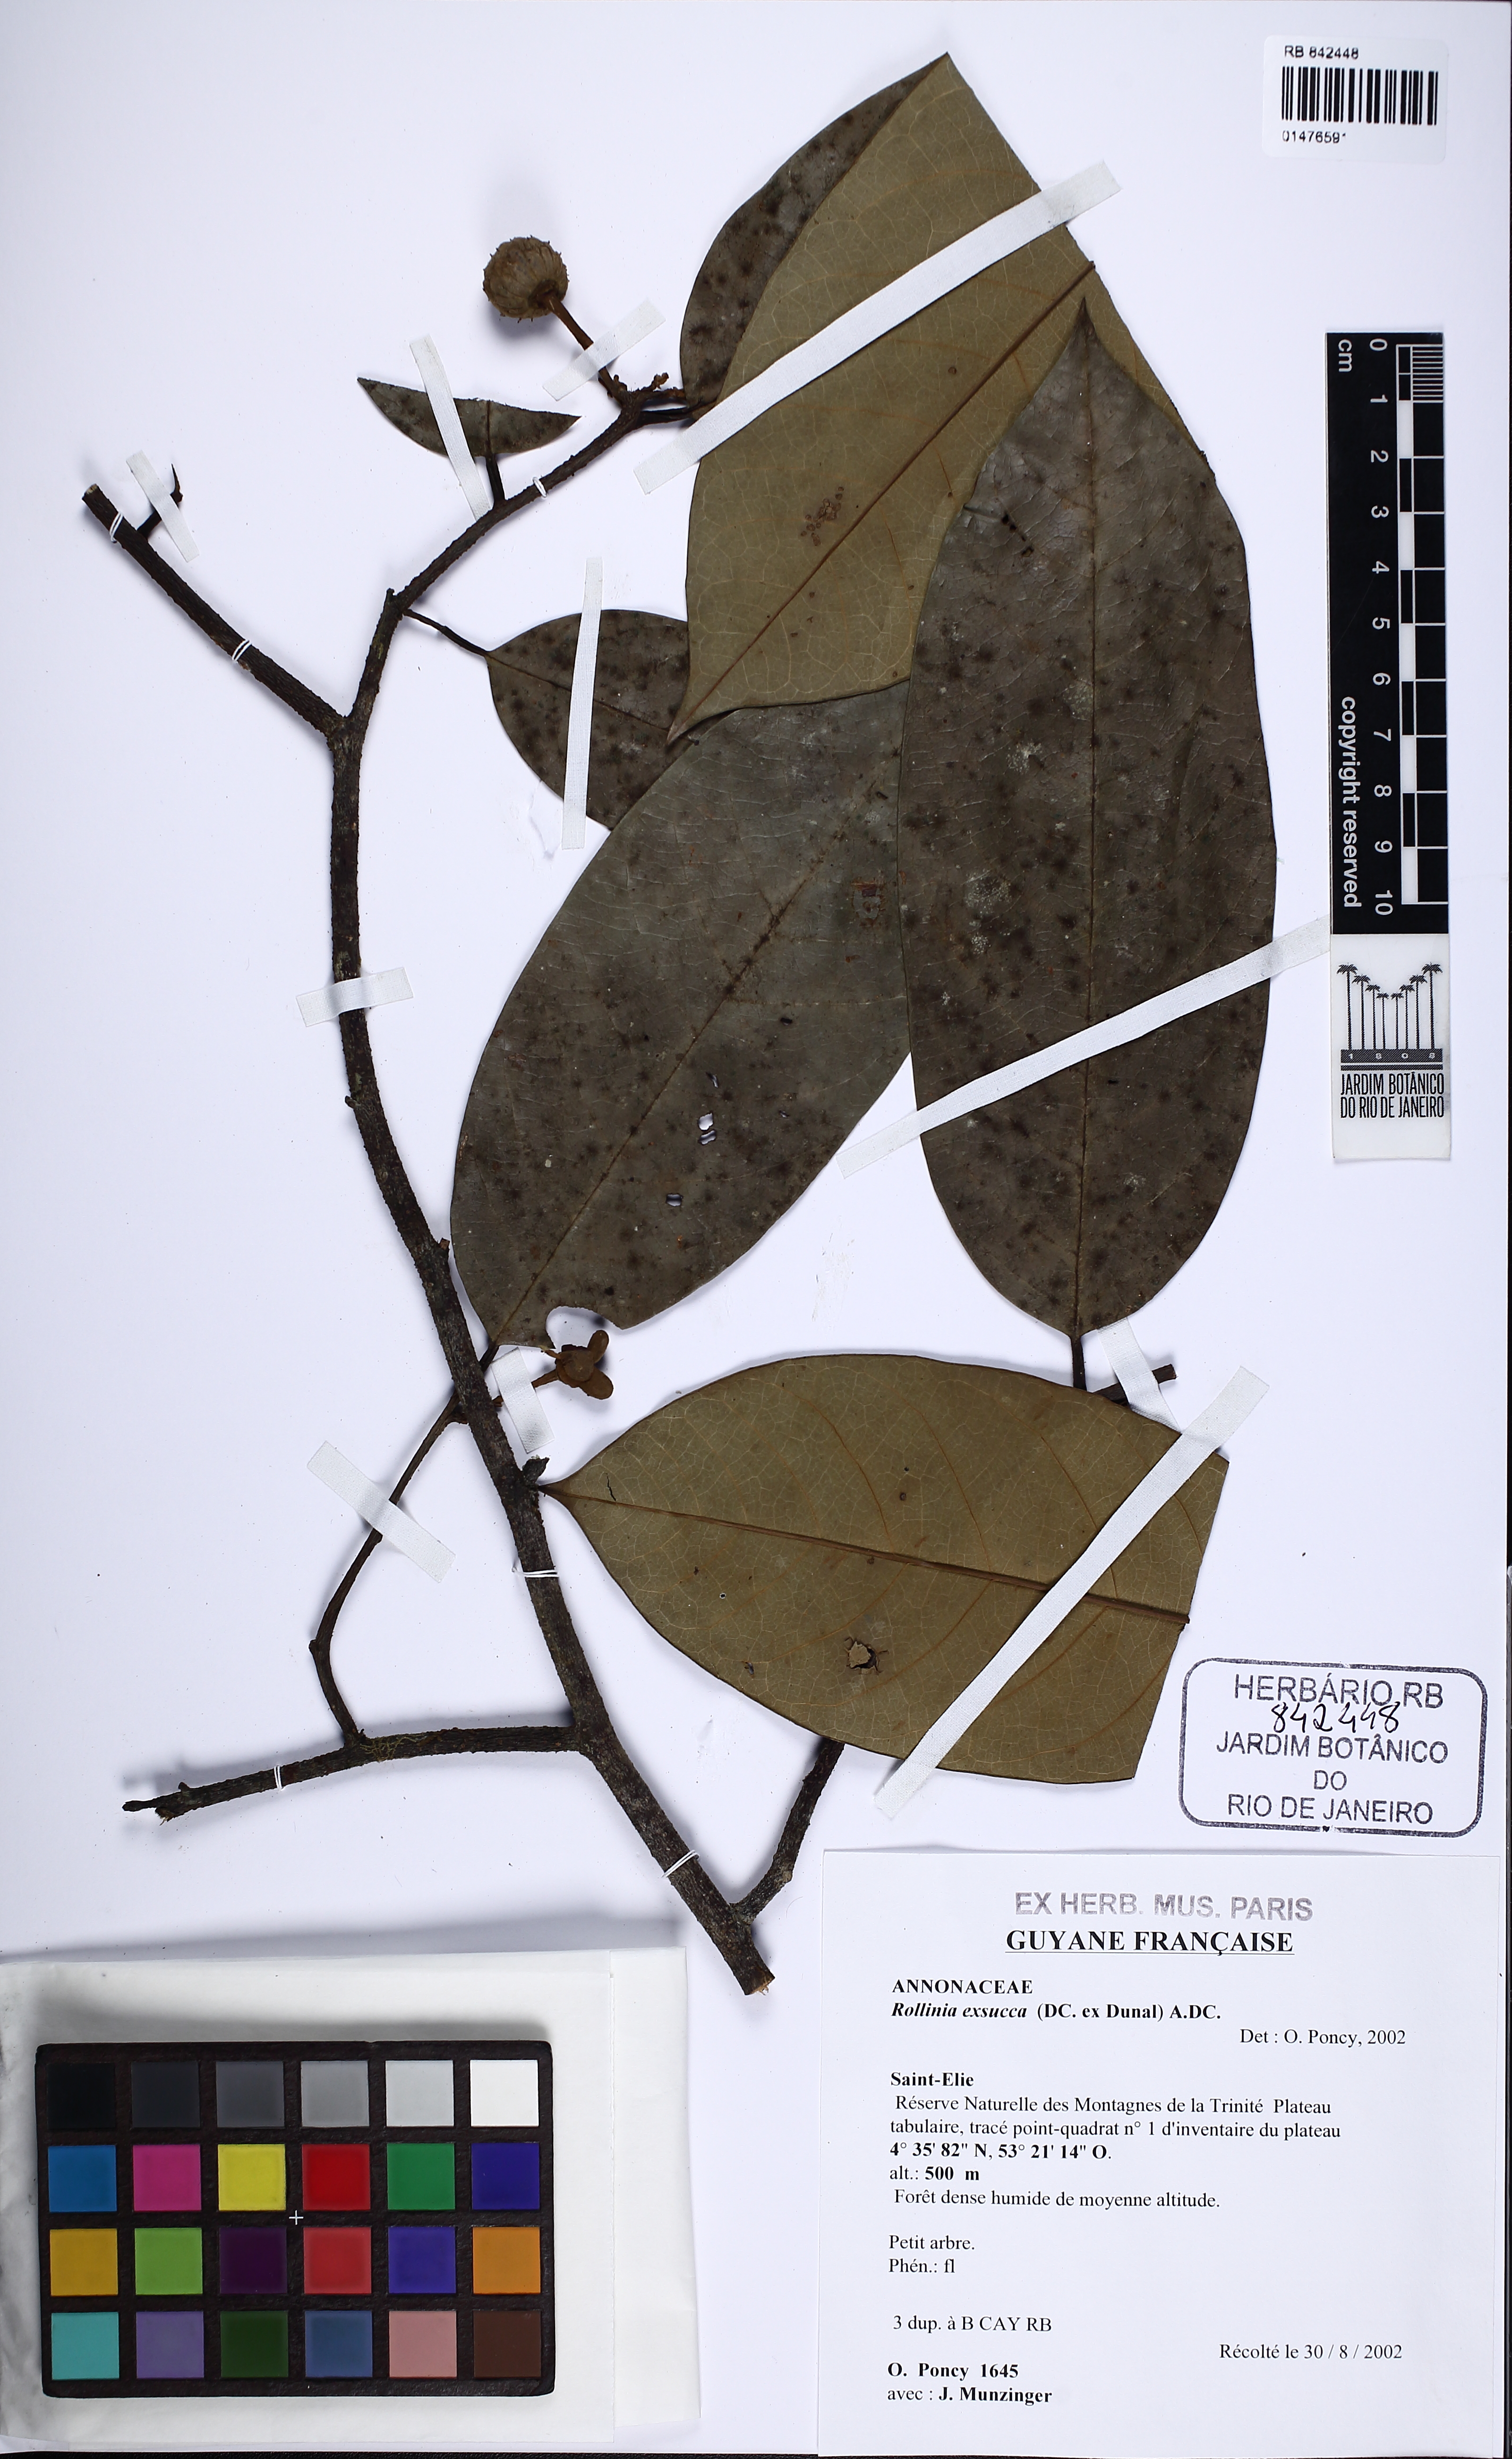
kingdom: Plantae
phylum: Tracheophyta
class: Magnoliopsida
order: Magnoliales
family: Annonaceae
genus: Annona
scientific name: Annona exsucca
